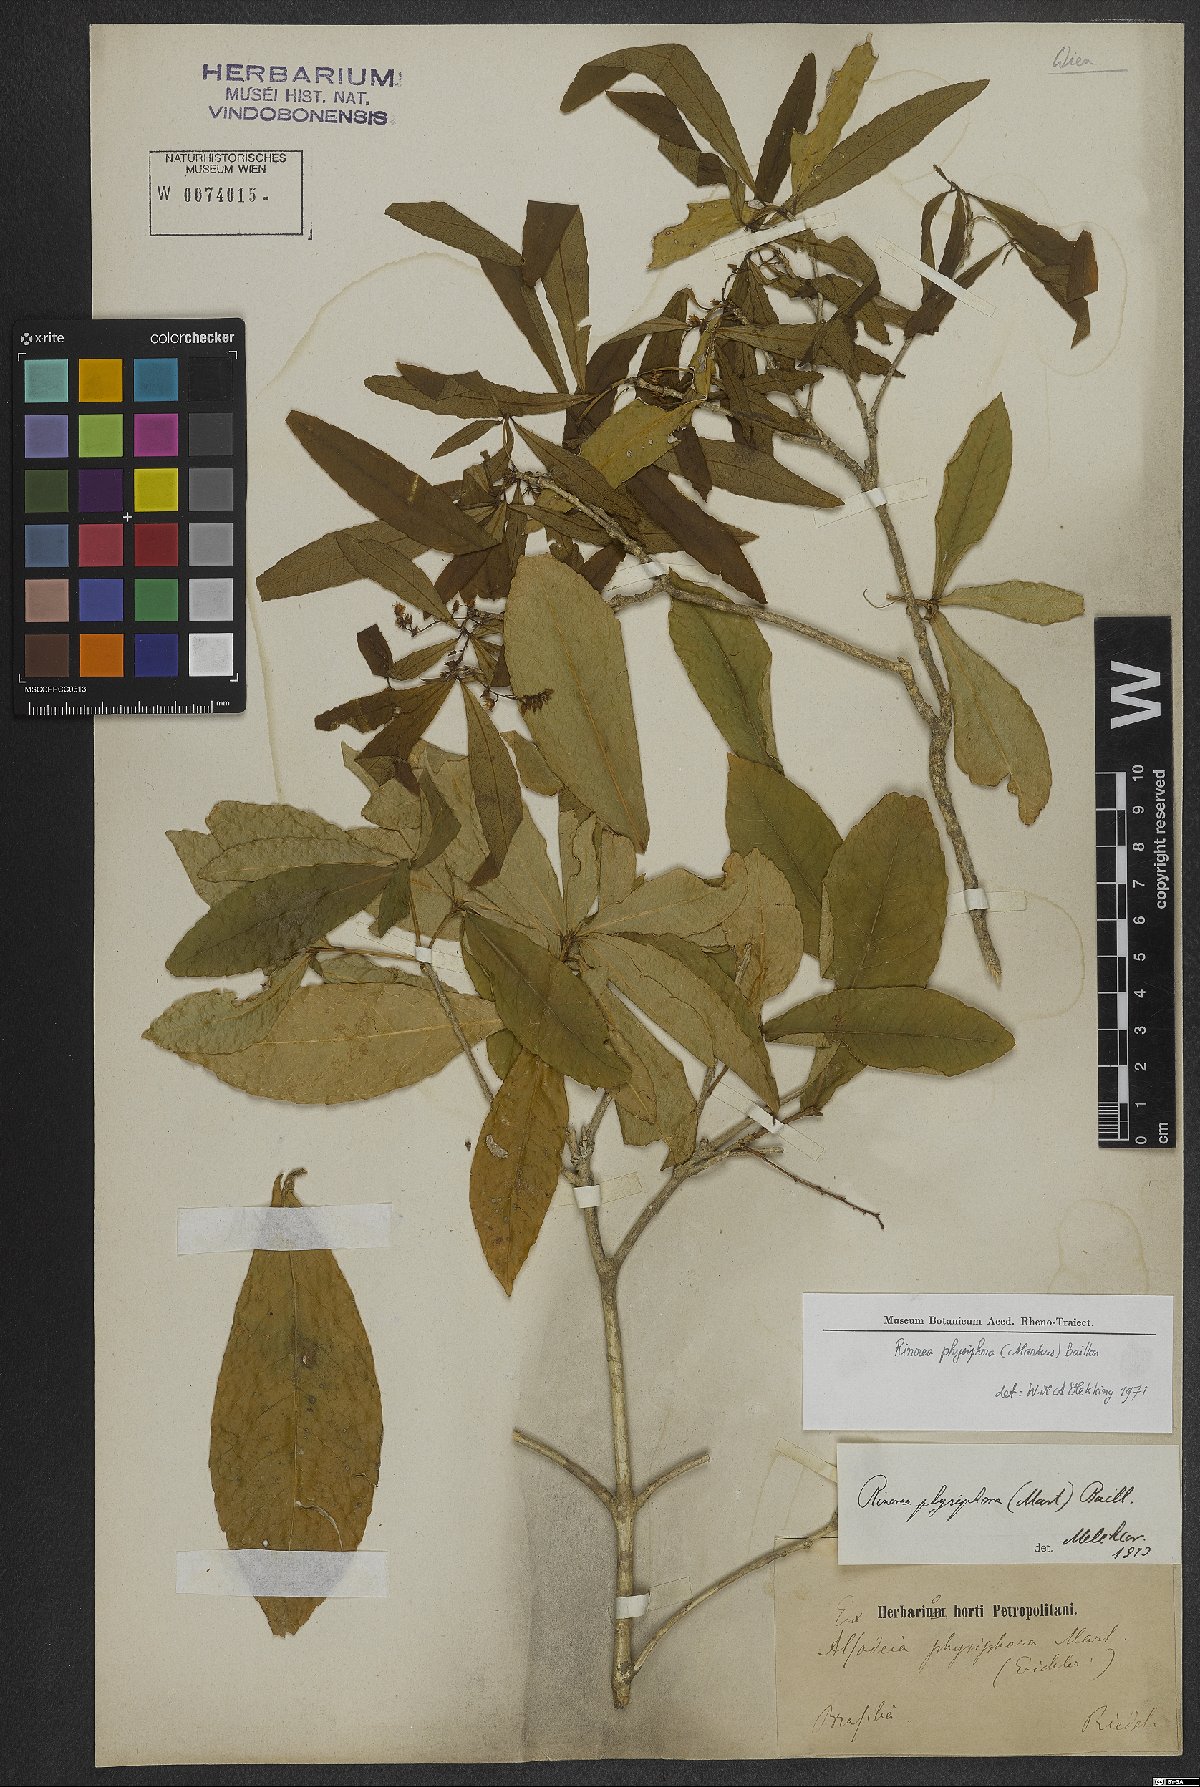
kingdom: Plantae
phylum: Tracheophyta
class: Magnoliopsida
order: Malpighiales
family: Violaceae
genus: Rinorea
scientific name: Rinorea laevigata
